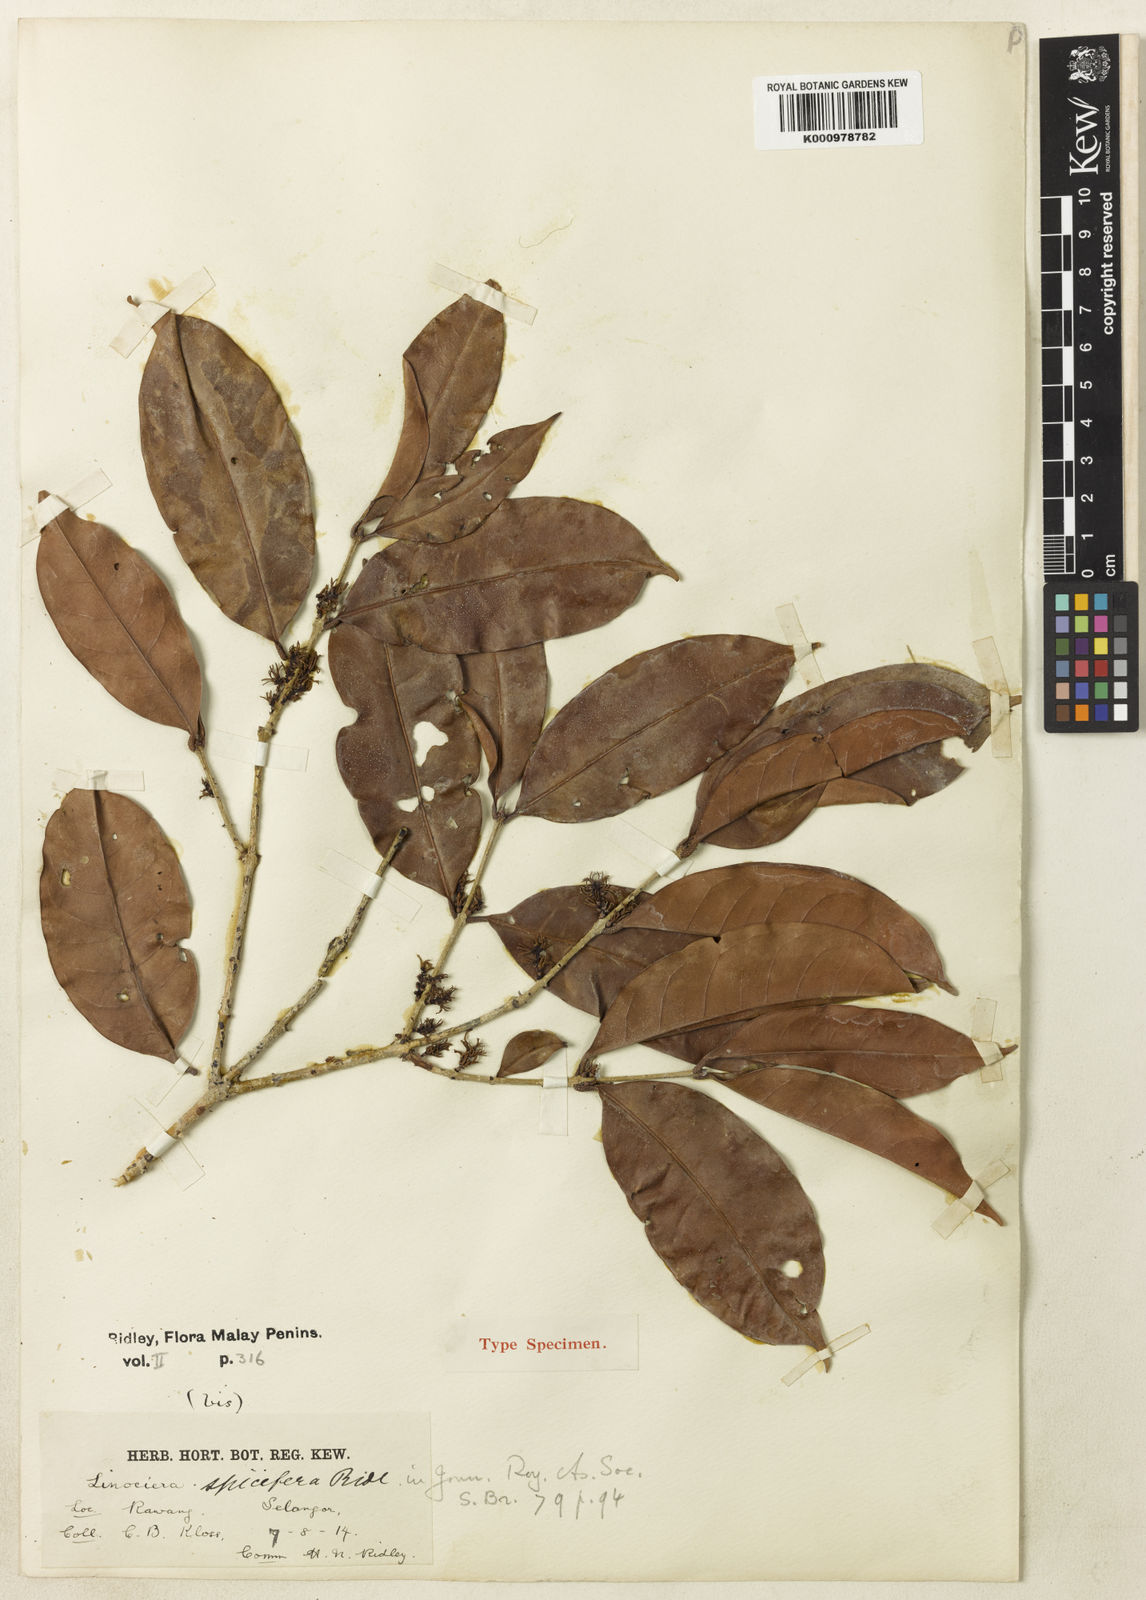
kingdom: Plantae
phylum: Tracheophyta
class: Magnoliopsida
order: Lamiales
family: Oleaceae
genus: Chionanthus
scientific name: Chionanthus
